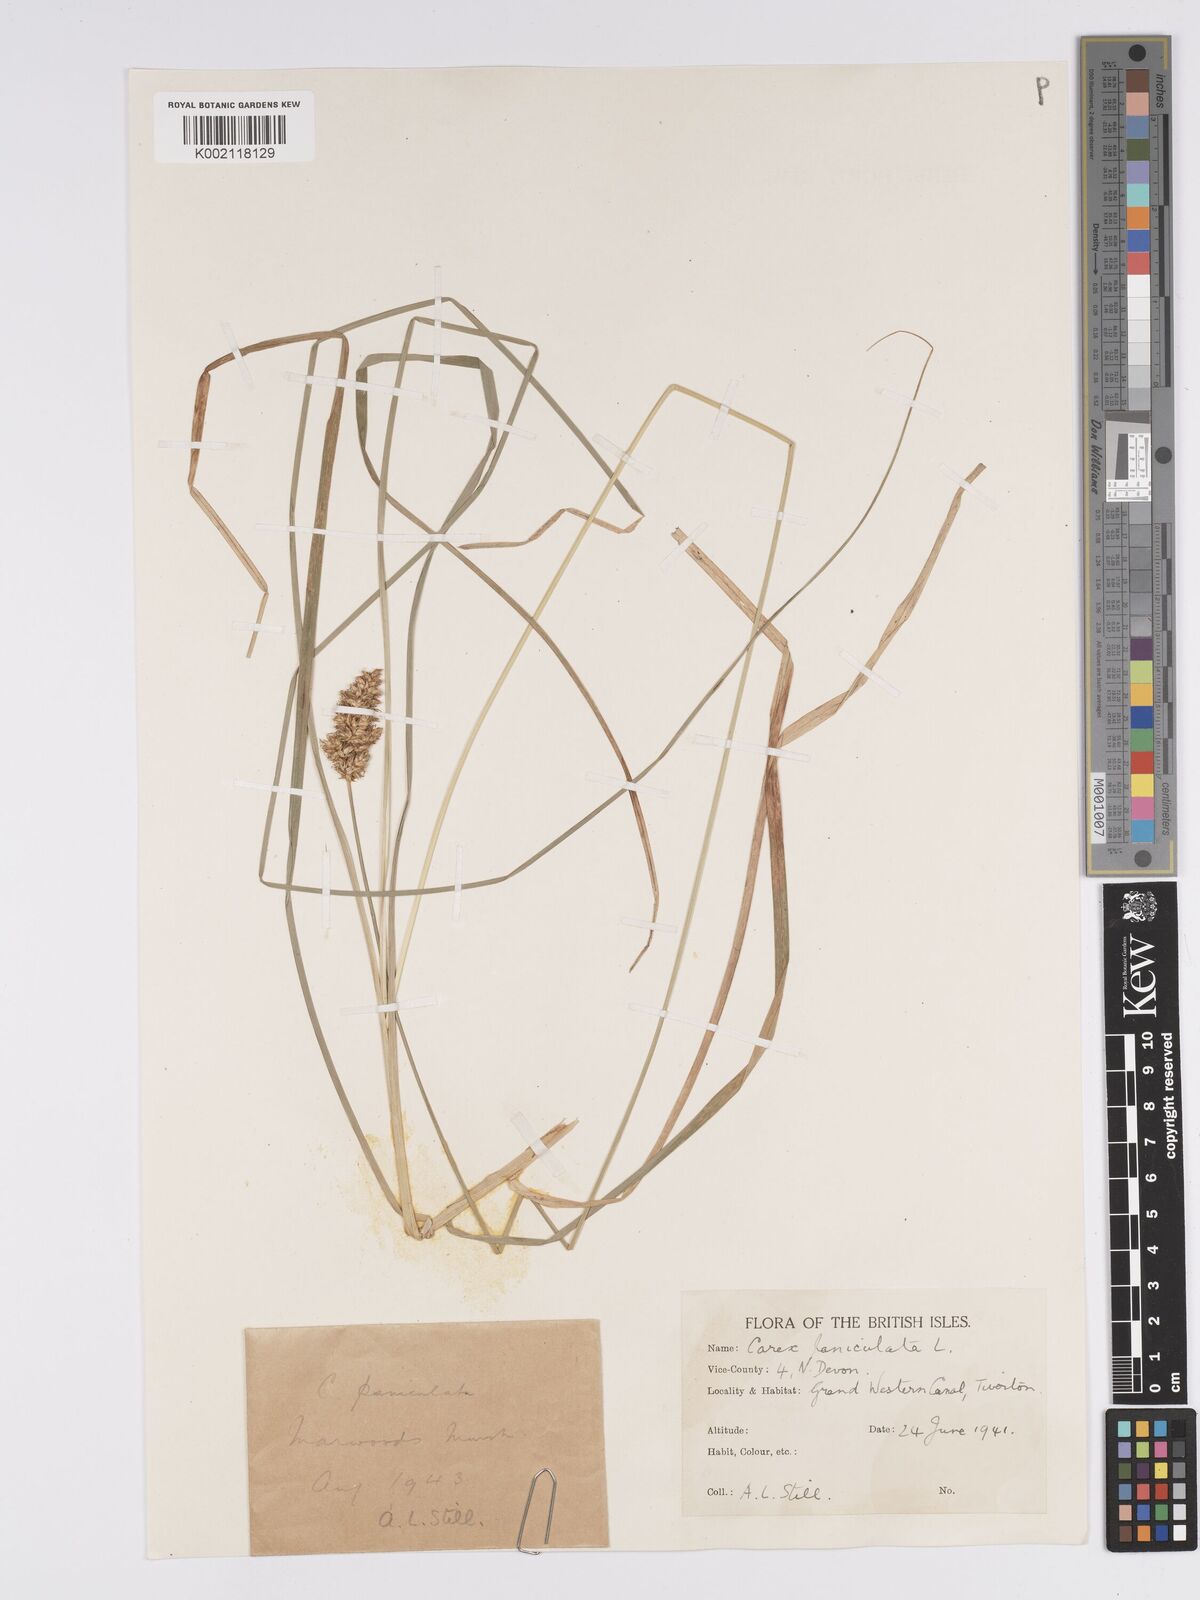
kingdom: Plantae
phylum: Tracheophyta
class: Liliopsida
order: Poales
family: Cyperaceae
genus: Carex
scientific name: Carex paniculata
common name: Greater tussock-sedge
